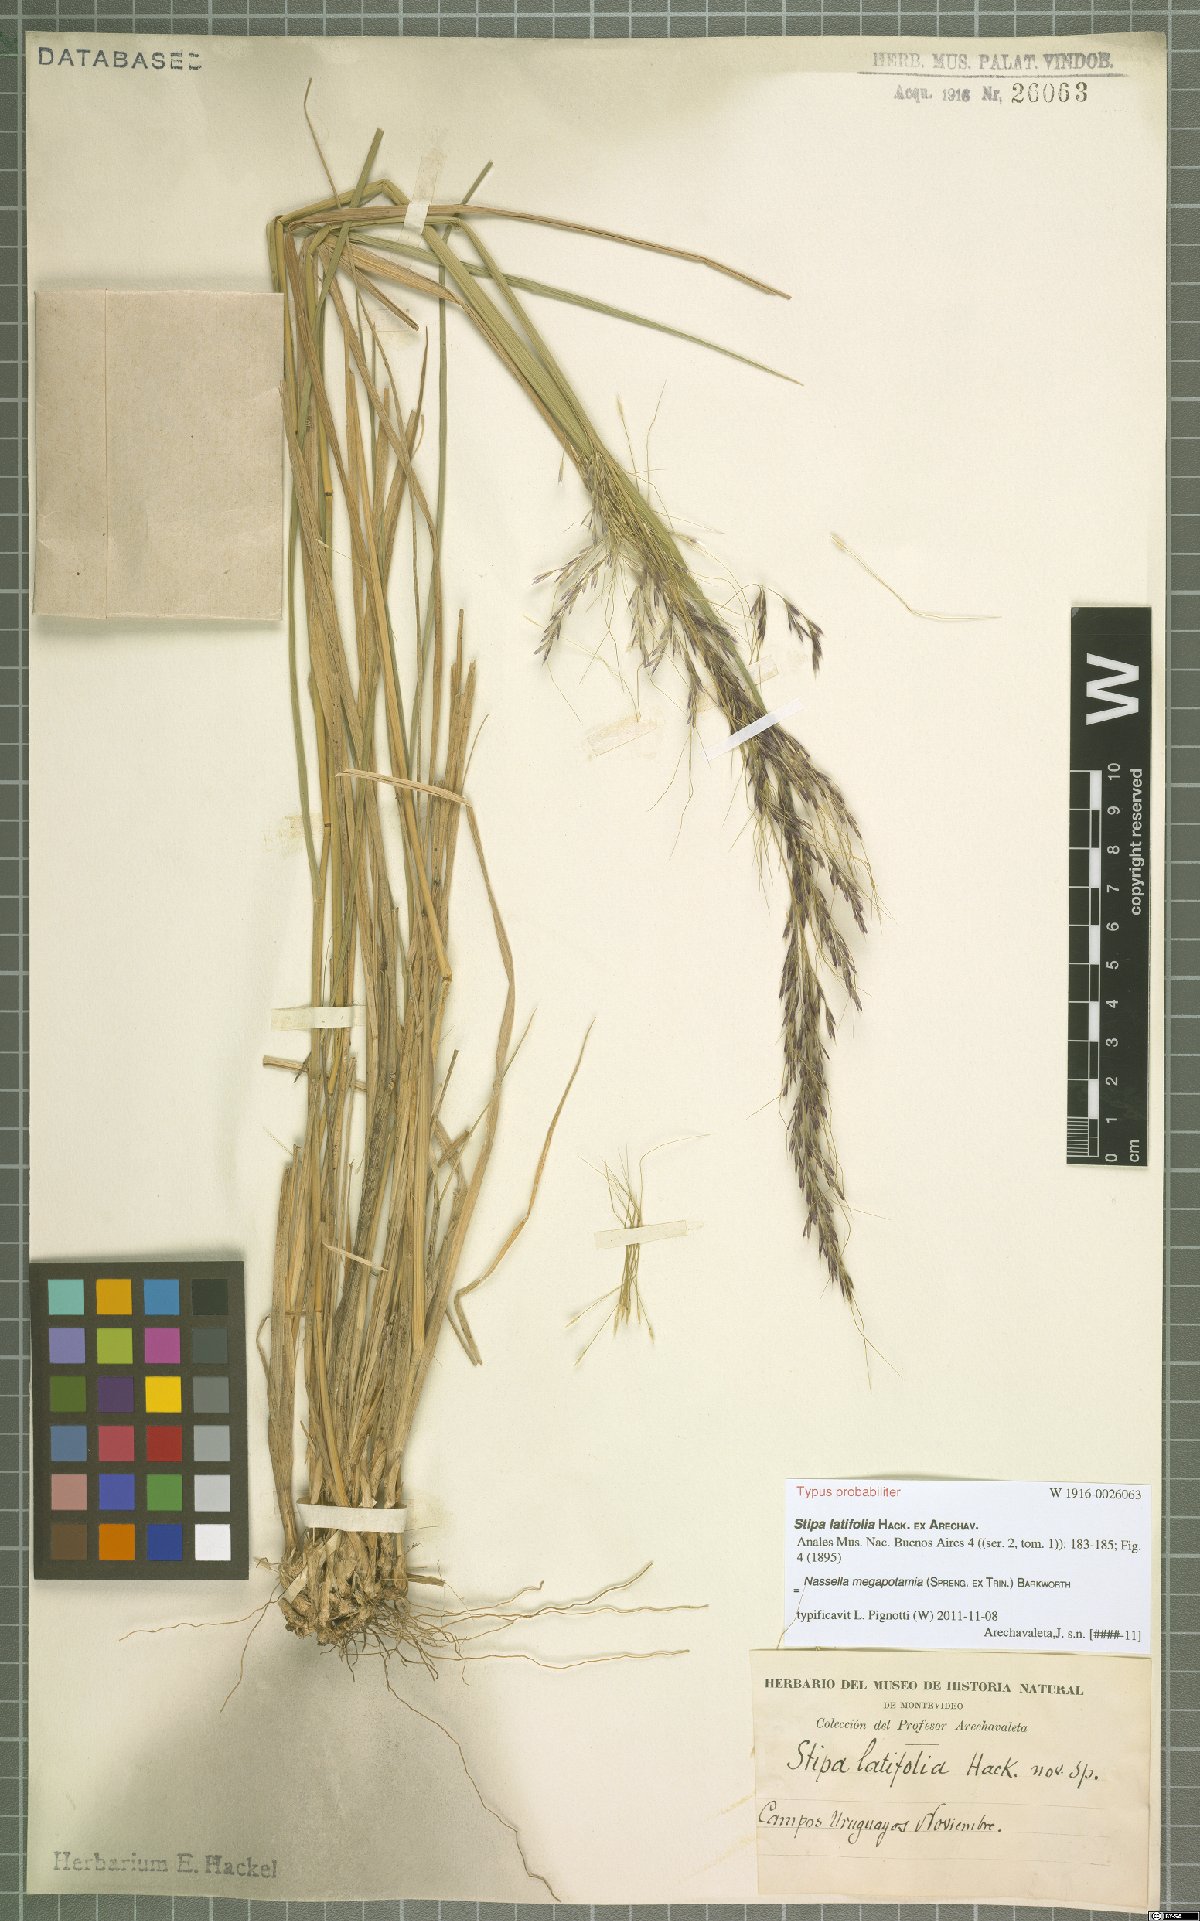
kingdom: Plantae
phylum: Tracheophyta
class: Liliopsida
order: Poales
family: Poaceae
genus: Jarava
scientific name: Jarava filifolia
